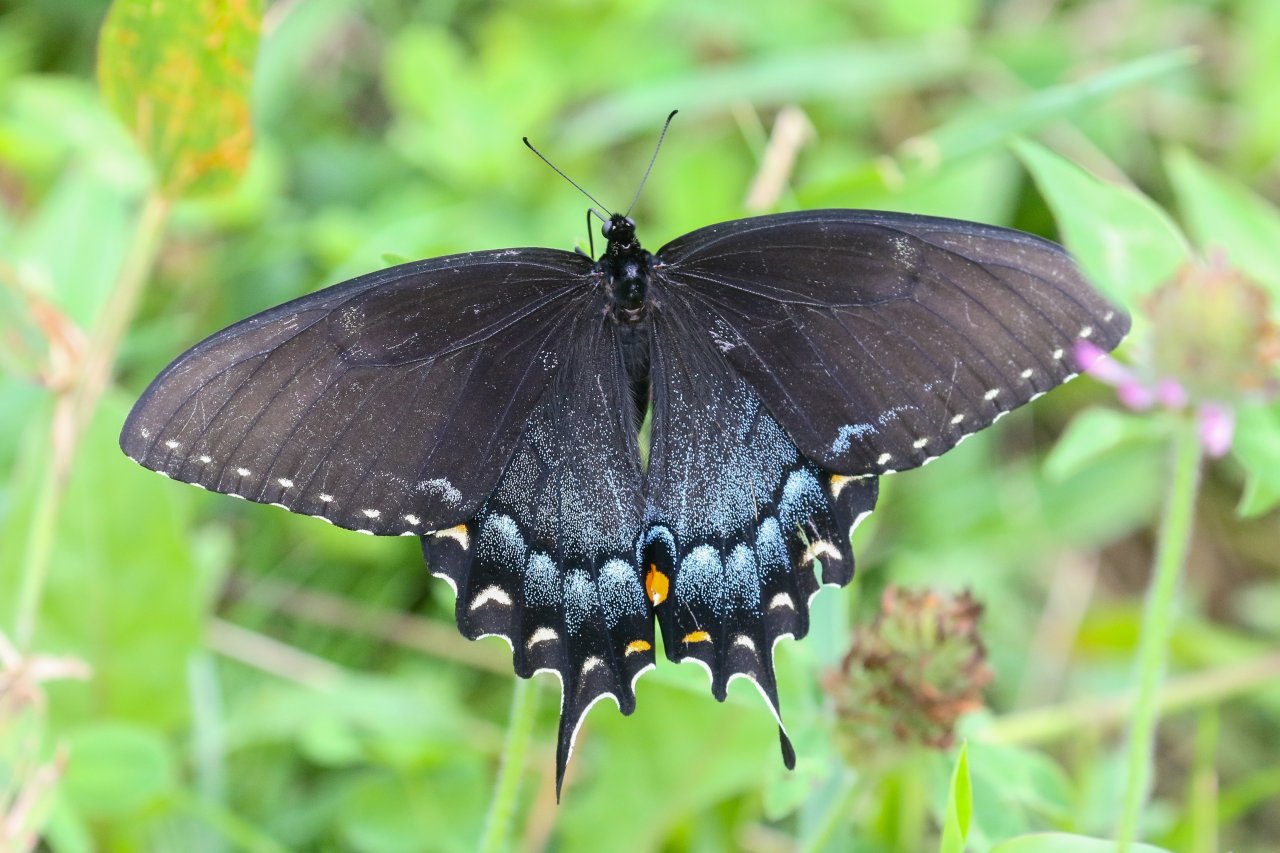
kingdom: Animalia
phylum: Arthropoda
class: Insecta
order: Lepidoptera
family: Papilionidae
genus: Pterourus
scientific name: Pterourus glaucus
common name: Eastern Tiger Swallowtail
